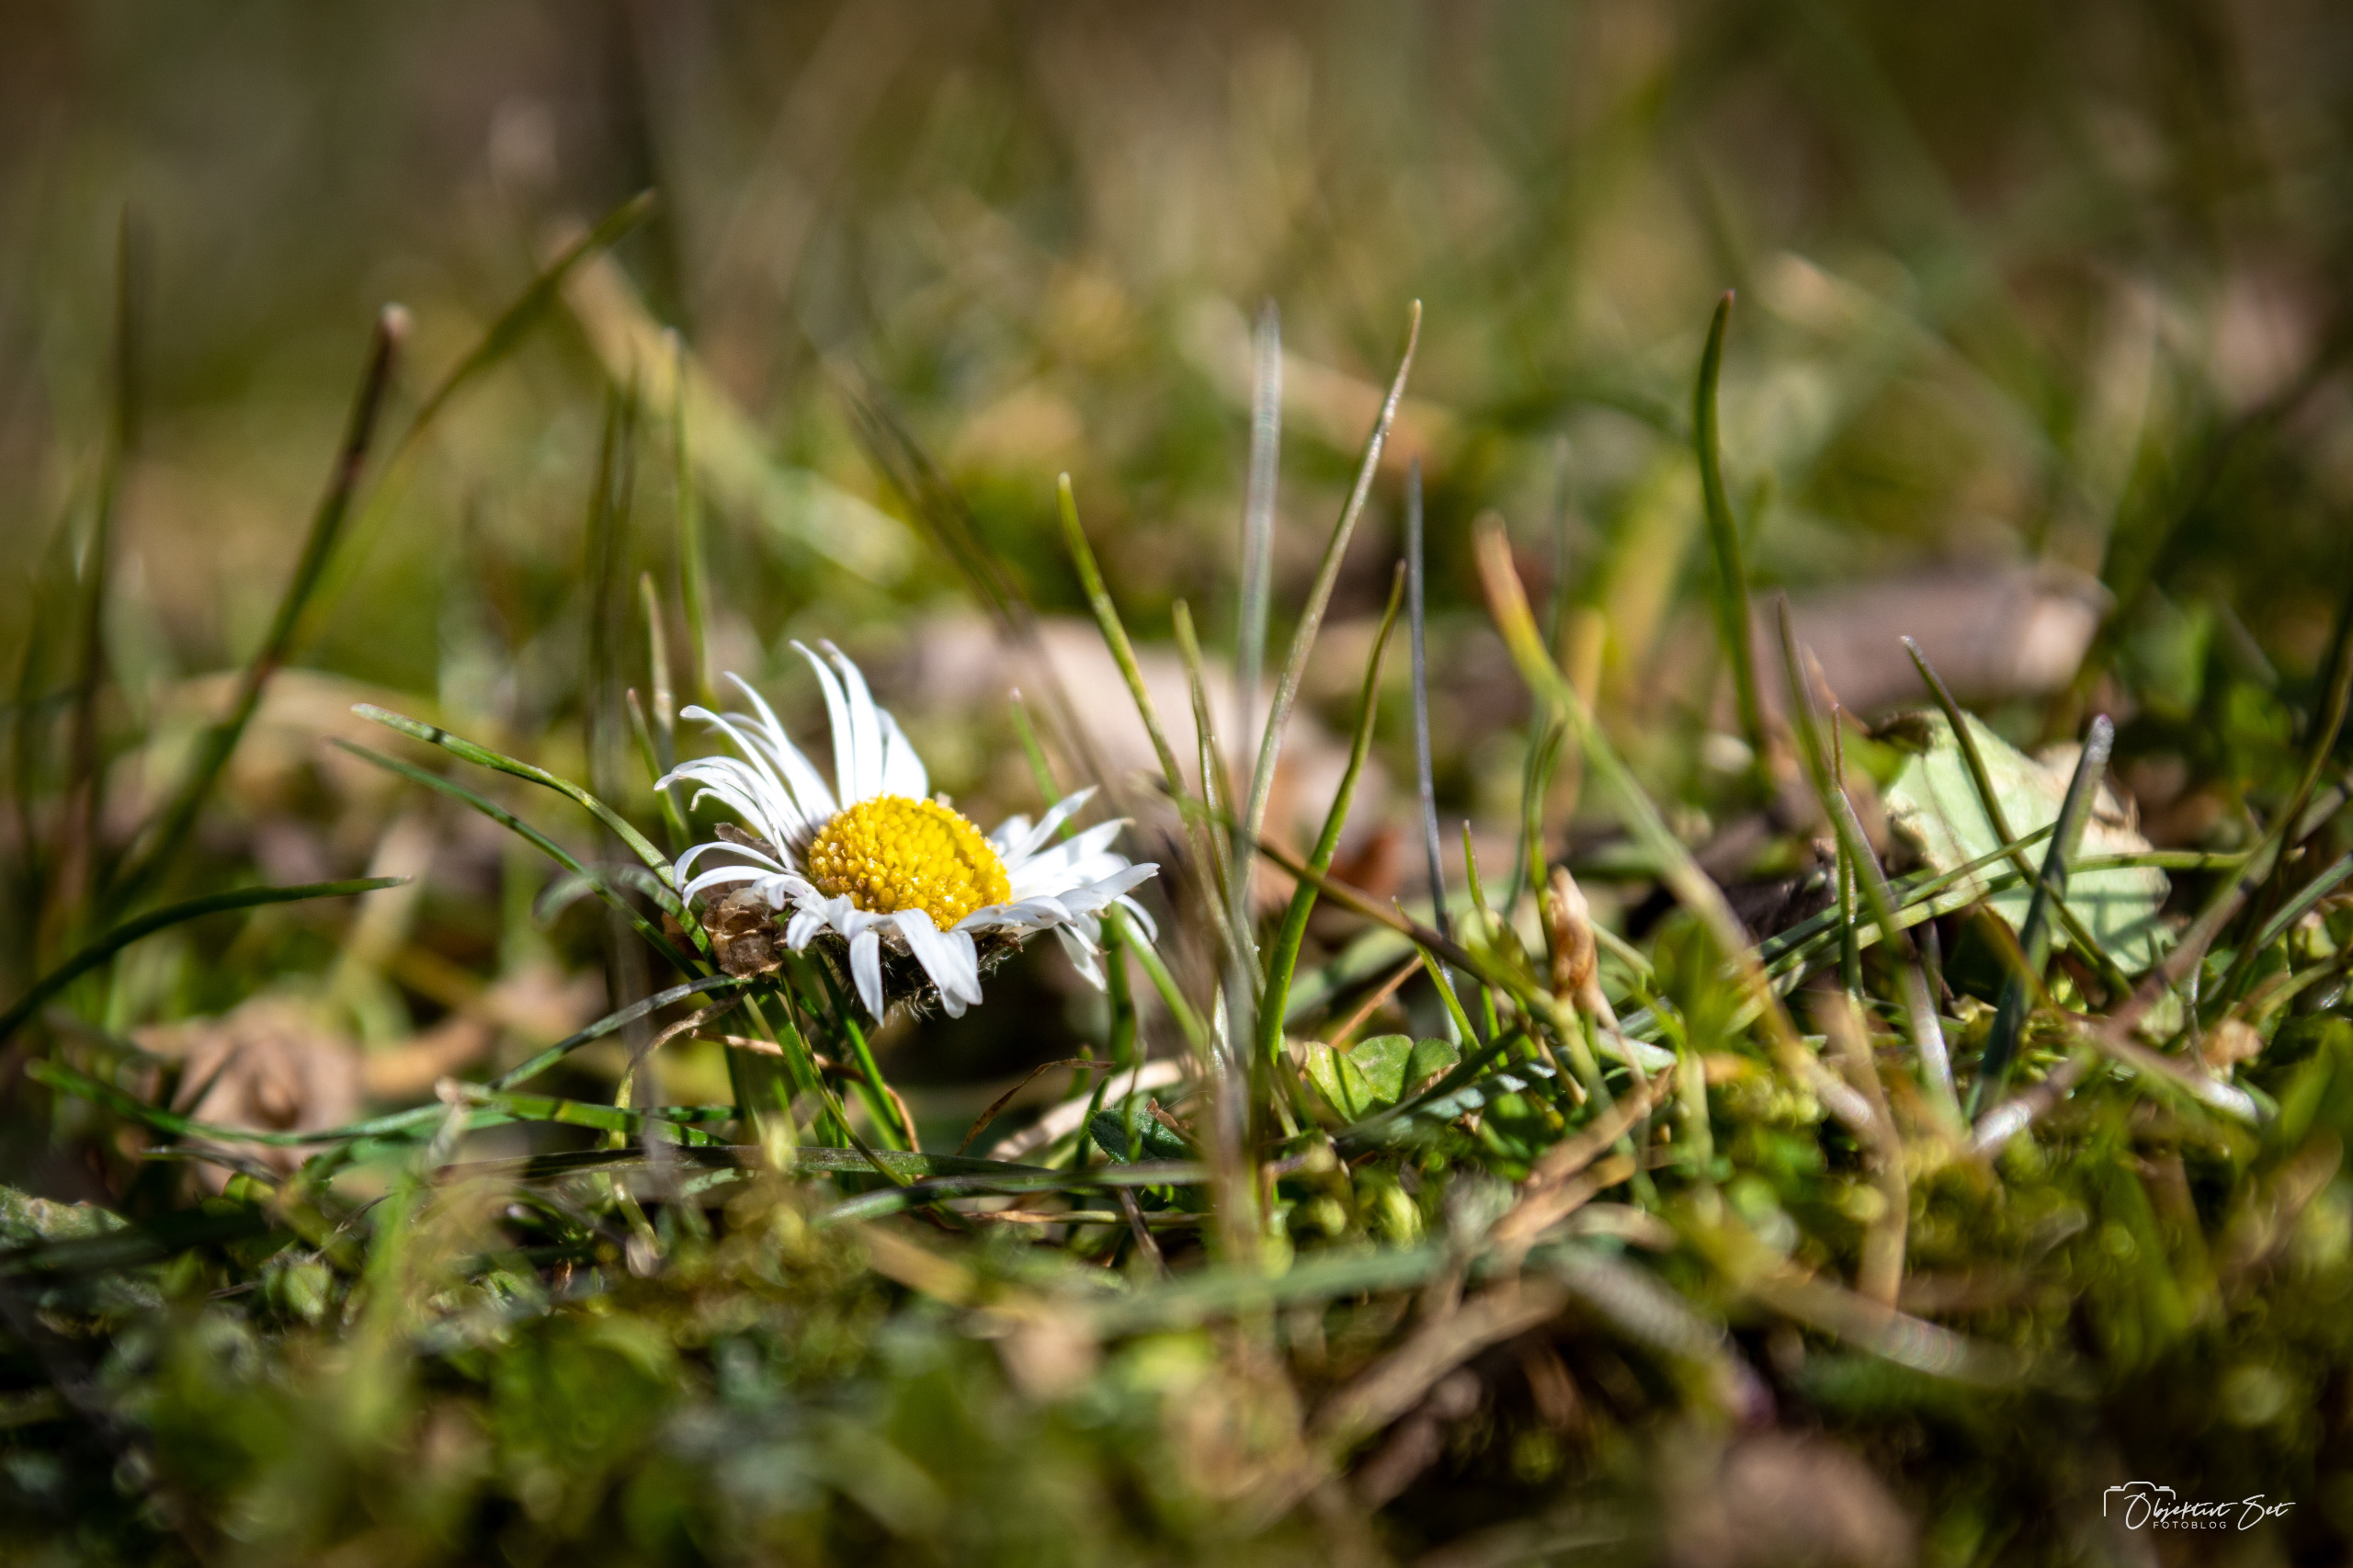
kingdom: Plantae
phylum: Tracheophyta
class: Magnoliopsida
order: Asterales
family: Asteraceae
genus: Bellis
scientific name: Bellis perennis
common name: Tusindfryd
